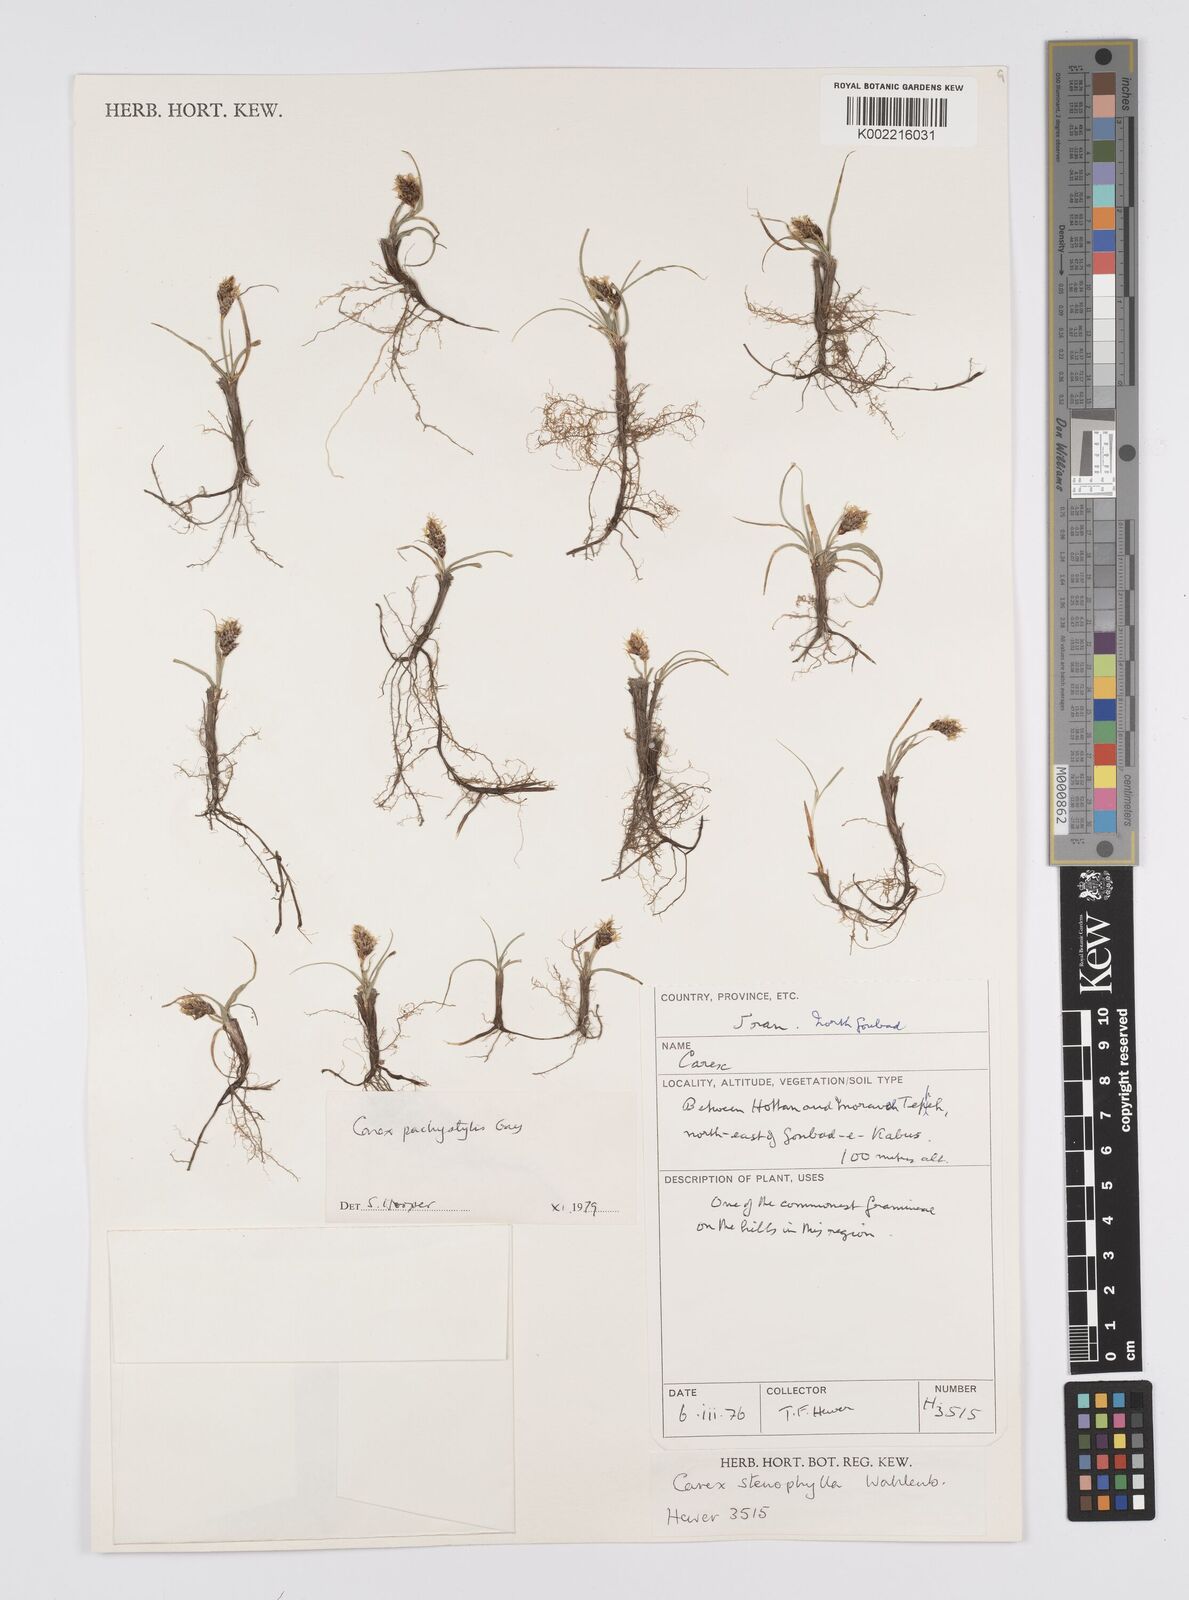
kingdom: Plantae
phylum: Tracheophyta
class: Liliopsida
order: Poales
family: Cyperaceae
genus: Carex
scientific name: Carex pachystylis
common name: Thick-stem sedge
